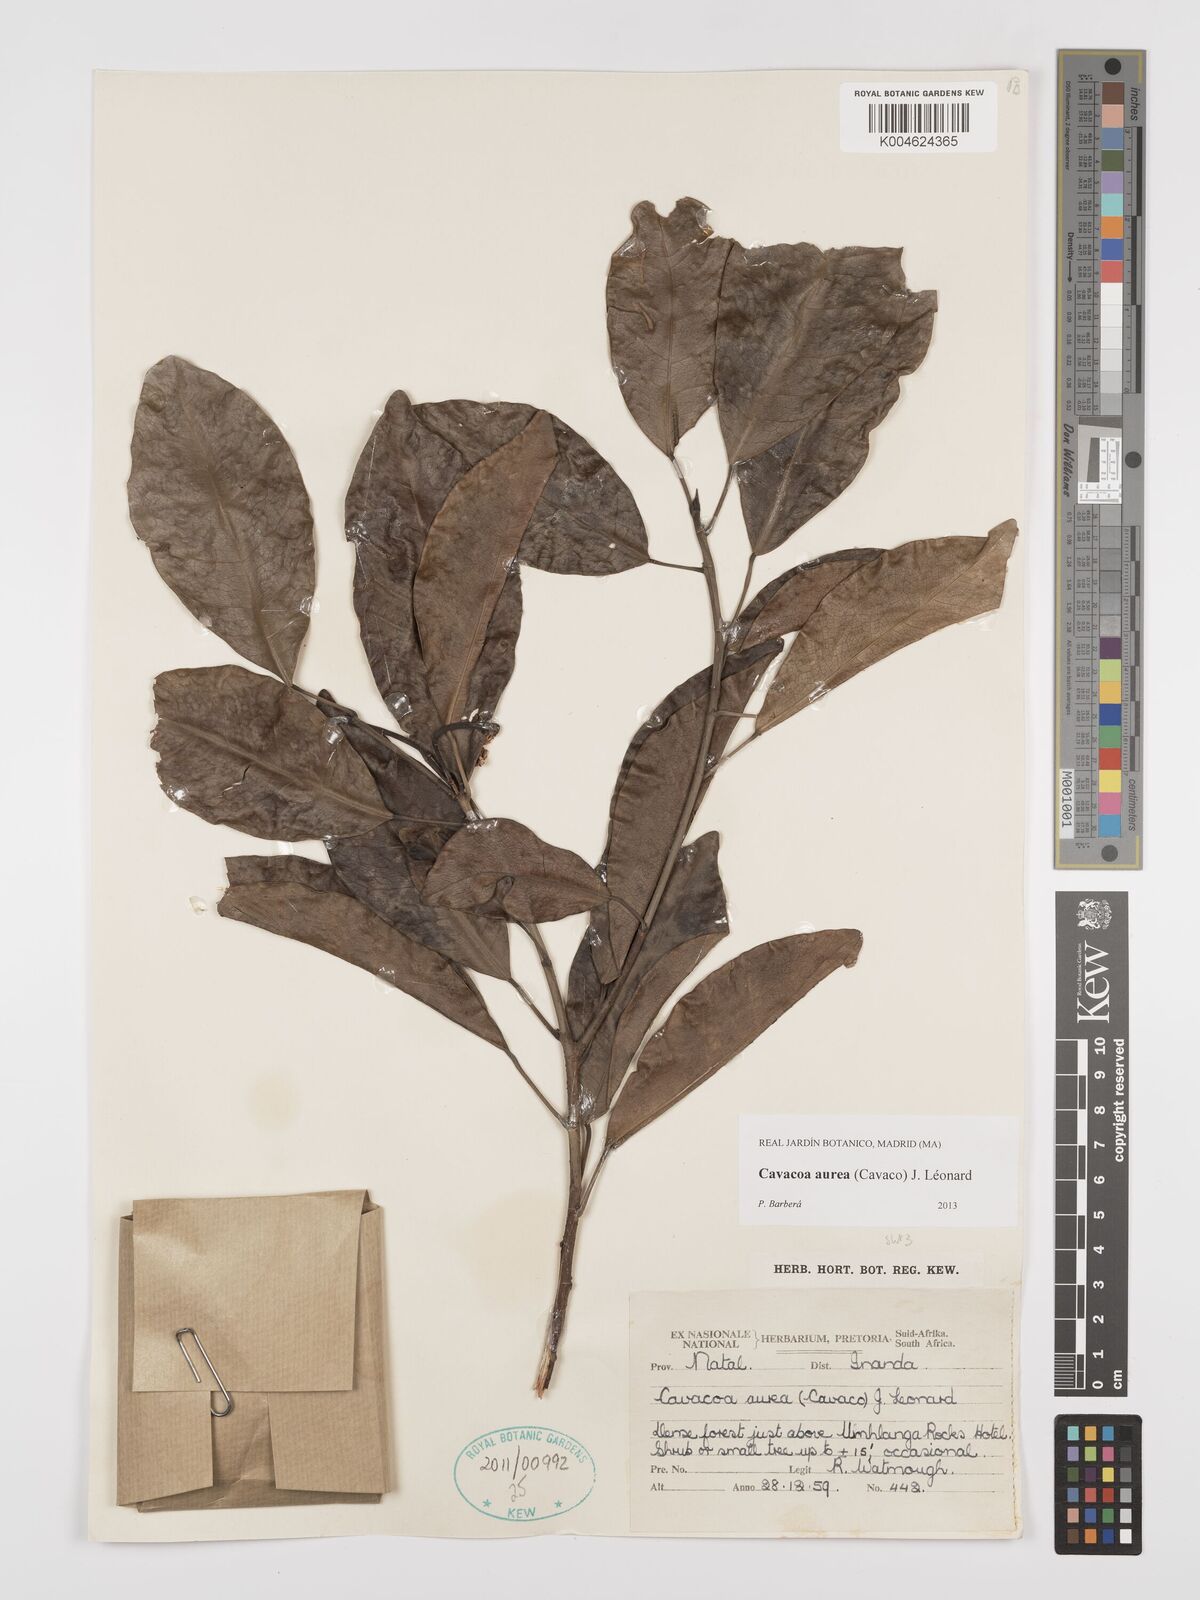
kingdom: Plantae
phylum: Tracheophyta
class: Magnoliopsida
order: Malpighiales
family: Euphorbiaceae
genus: Cavacoa
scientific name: Cavacoa aurea
